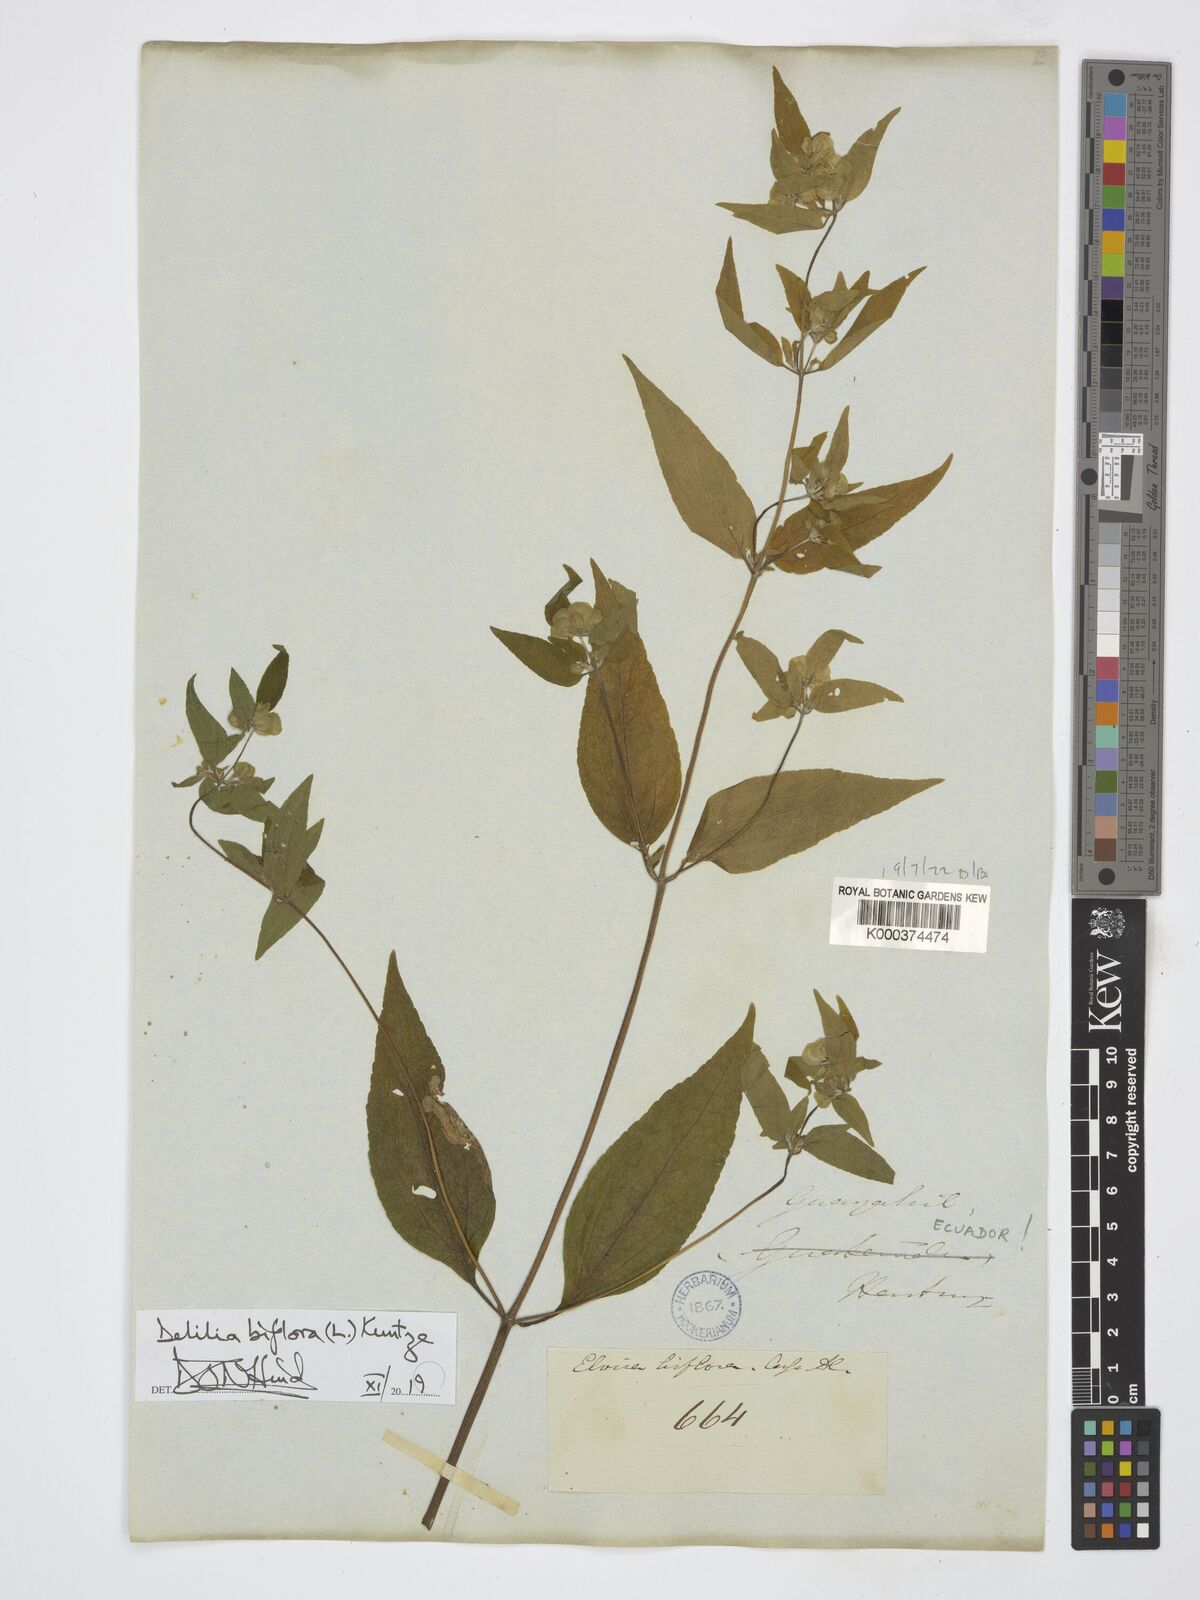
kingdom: Plantae
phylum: Tracheophyta
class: Magnoliopsida
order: Asterales
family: Asteraceae
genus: Delilia
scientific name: Delilia biflora
